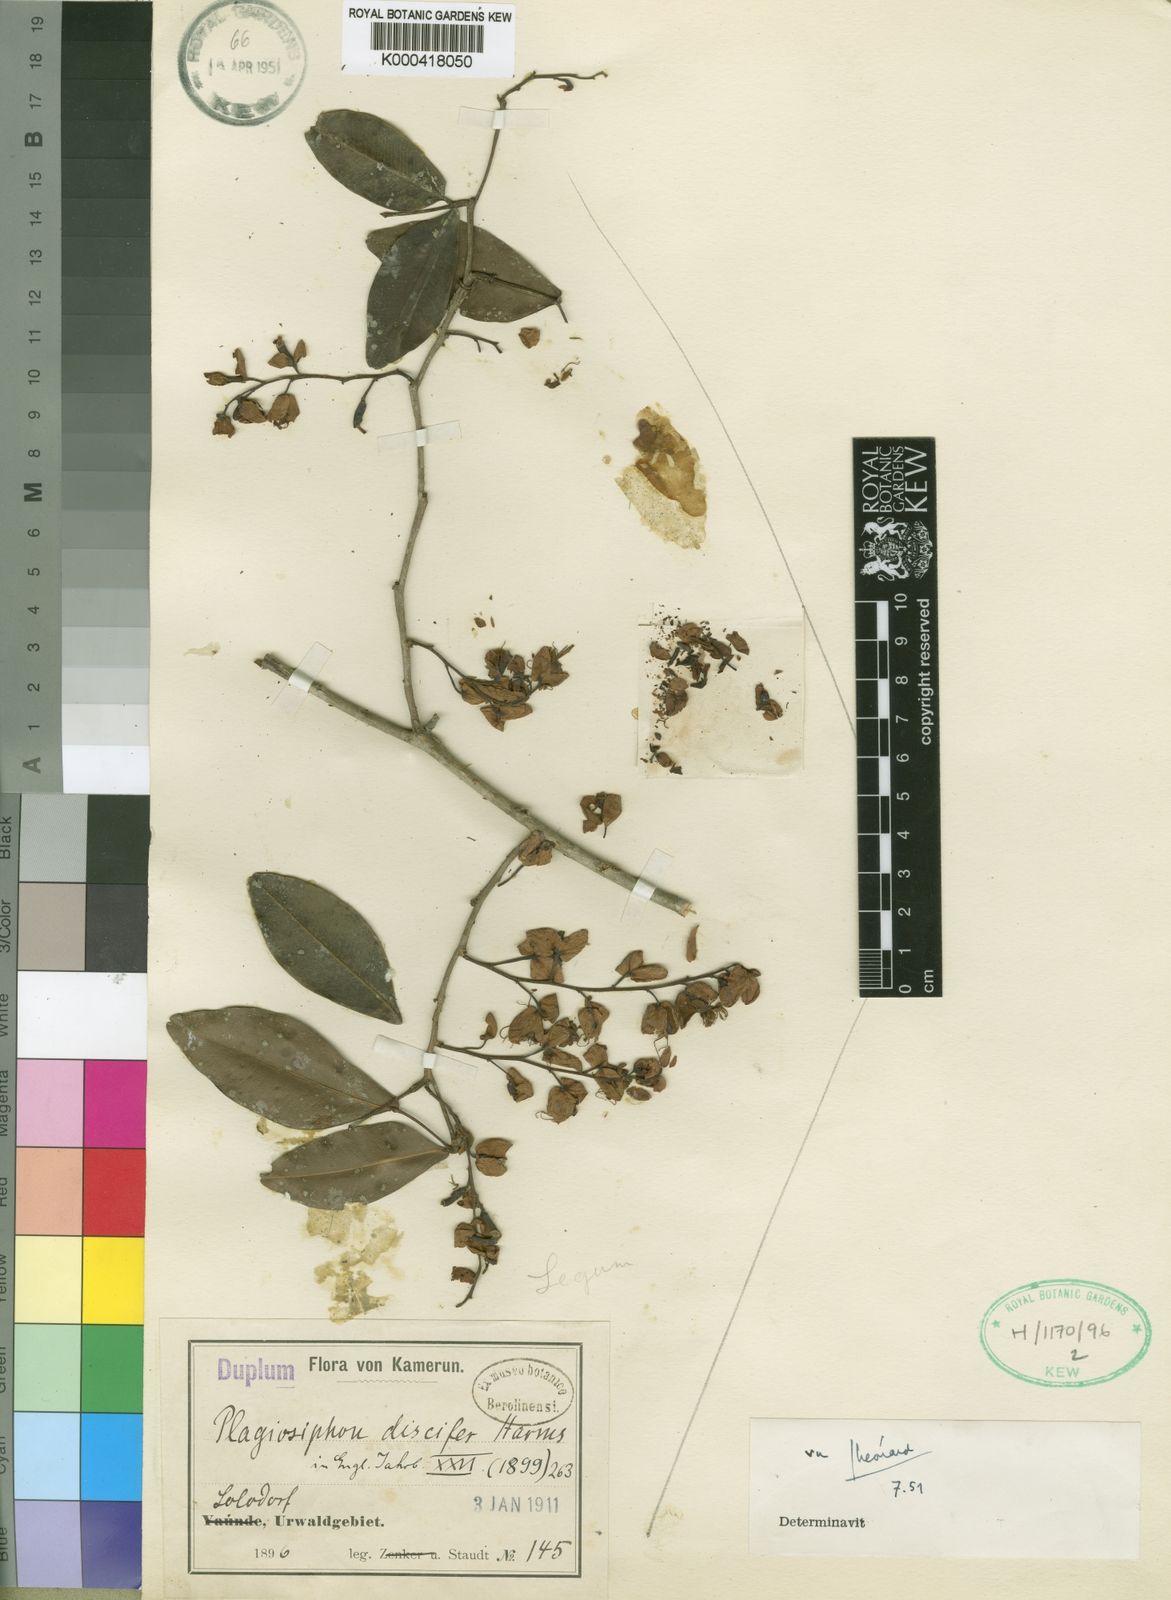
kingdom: Plantae
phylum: Tracheophyta
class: Magnoliopsida
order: Fabales
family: Fabaceae
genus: Plagiosiphon
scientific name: Plagiosiphon discifer
